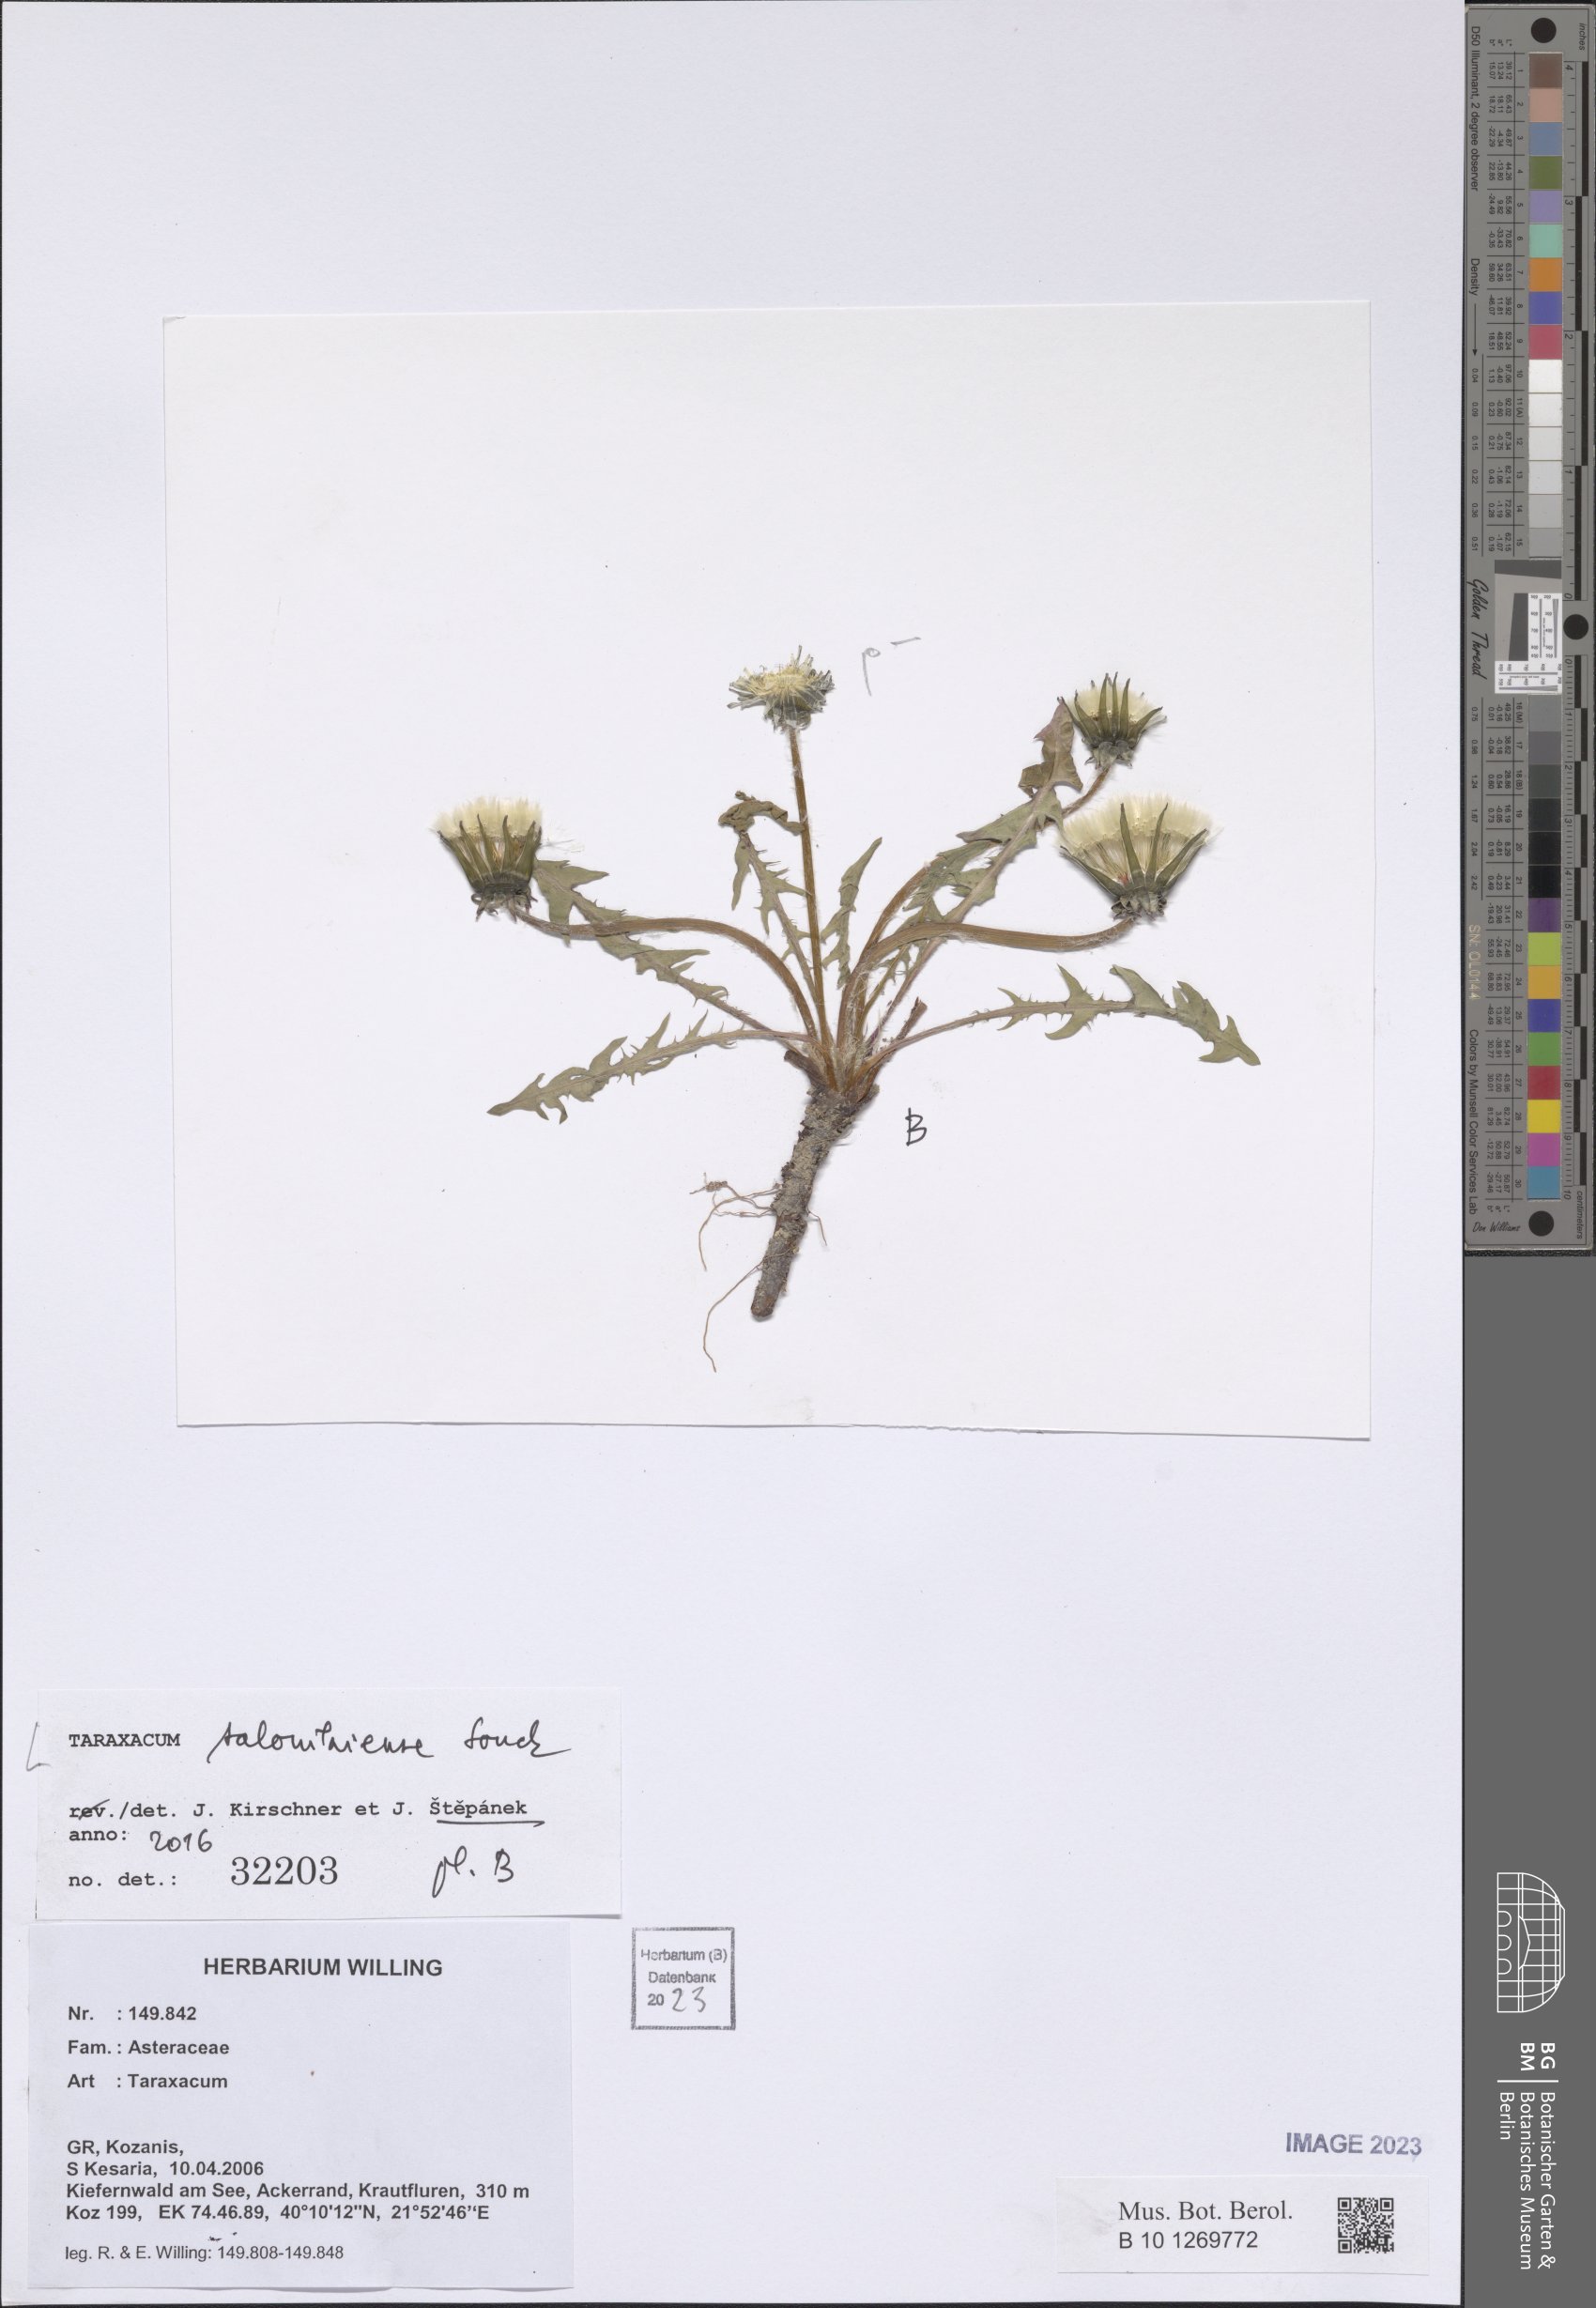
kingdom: Plantae
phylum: Tracheophyta
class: Magnoliopsida
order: Asterales
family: Asteraceae
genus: Taraxacum
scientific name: Taraxacum salonikiense
